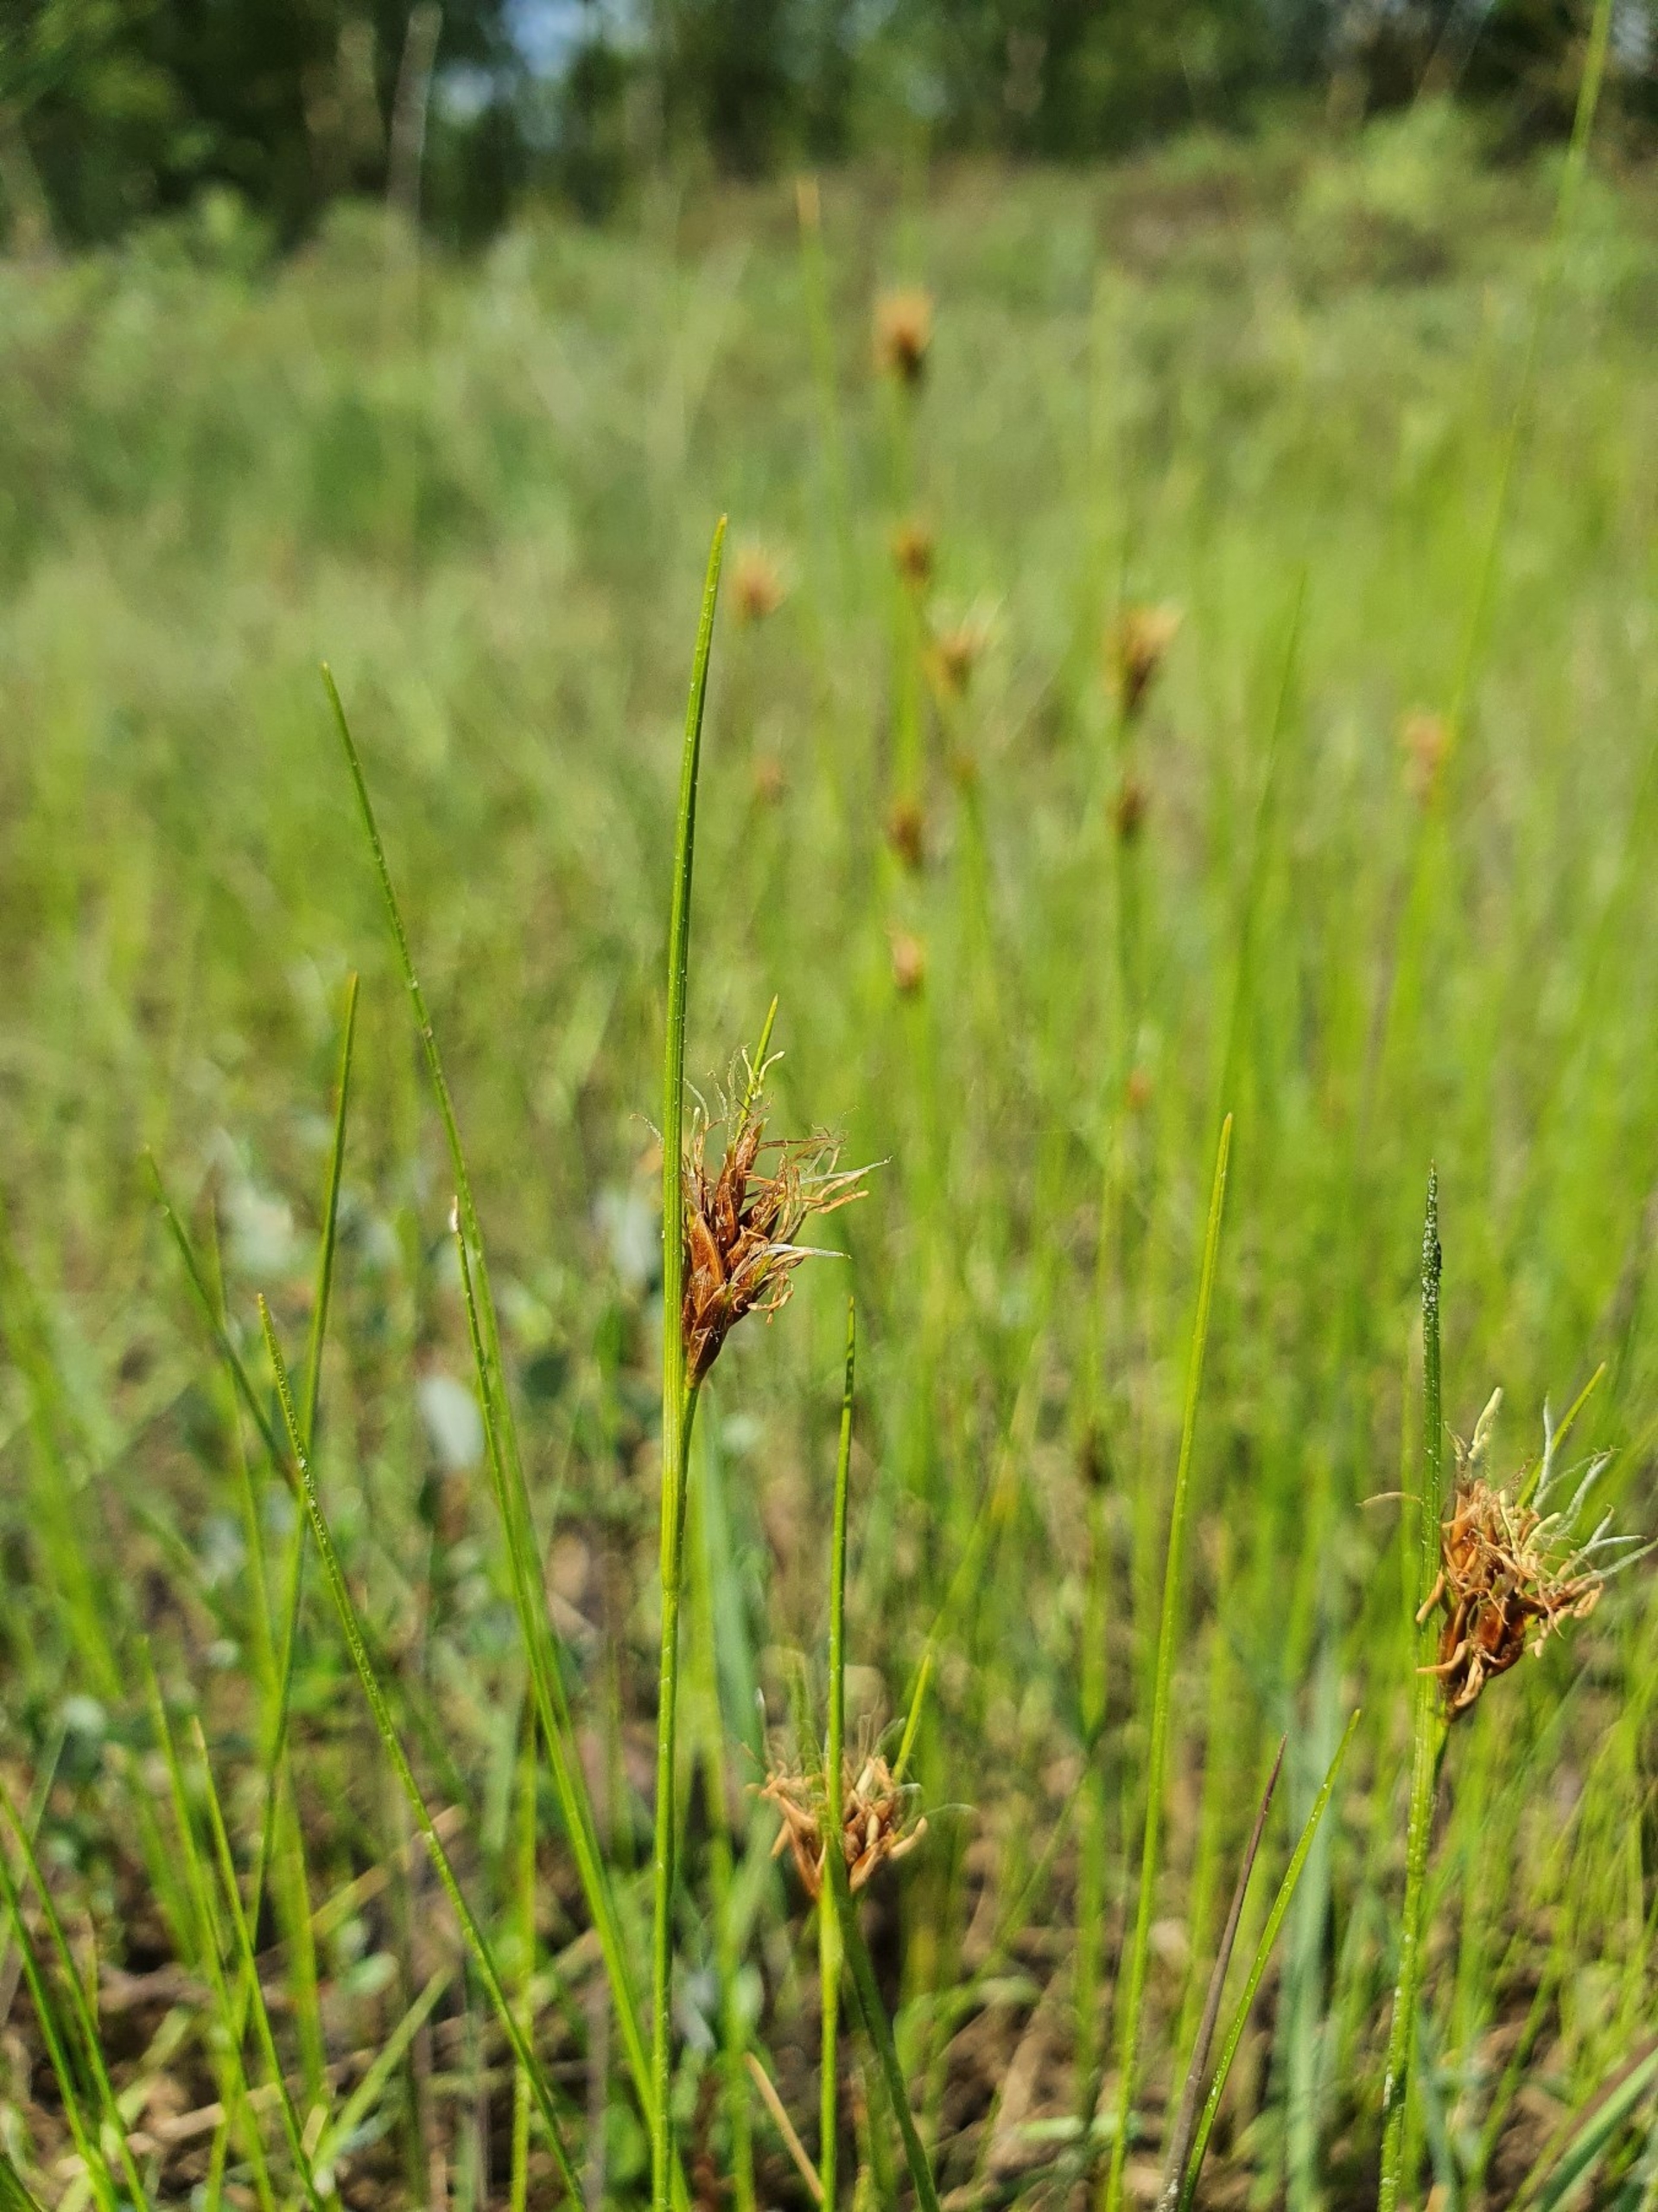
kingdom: Plantae
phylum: Tracheophyta
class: Liliopsida
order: Poales
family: Cyperaceae
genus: Rhynchospora
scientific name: Rhynchospora fusca
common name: Brun næbfrø
